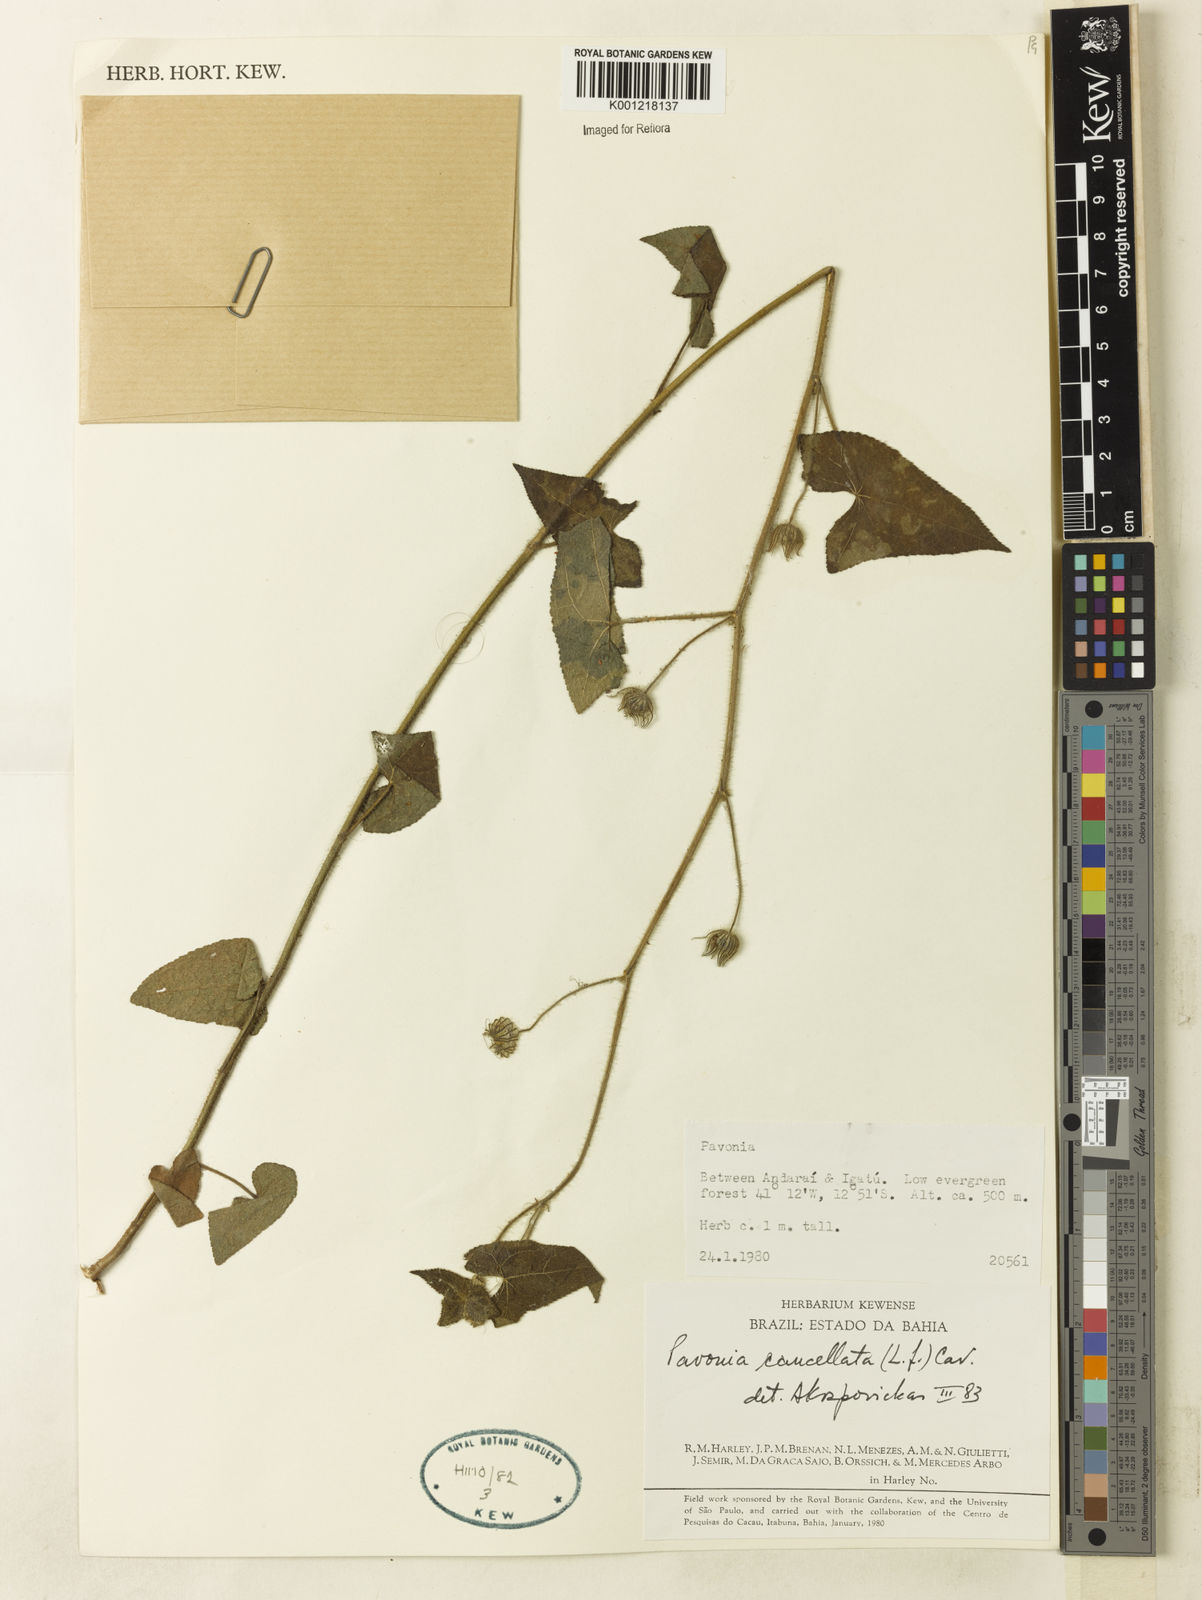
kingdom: Plantae
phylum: Tracheophyta
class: Magnoliopsida
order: Malvales
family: Malvaceae
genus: Pavonia
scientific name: Pavonia cancellata
